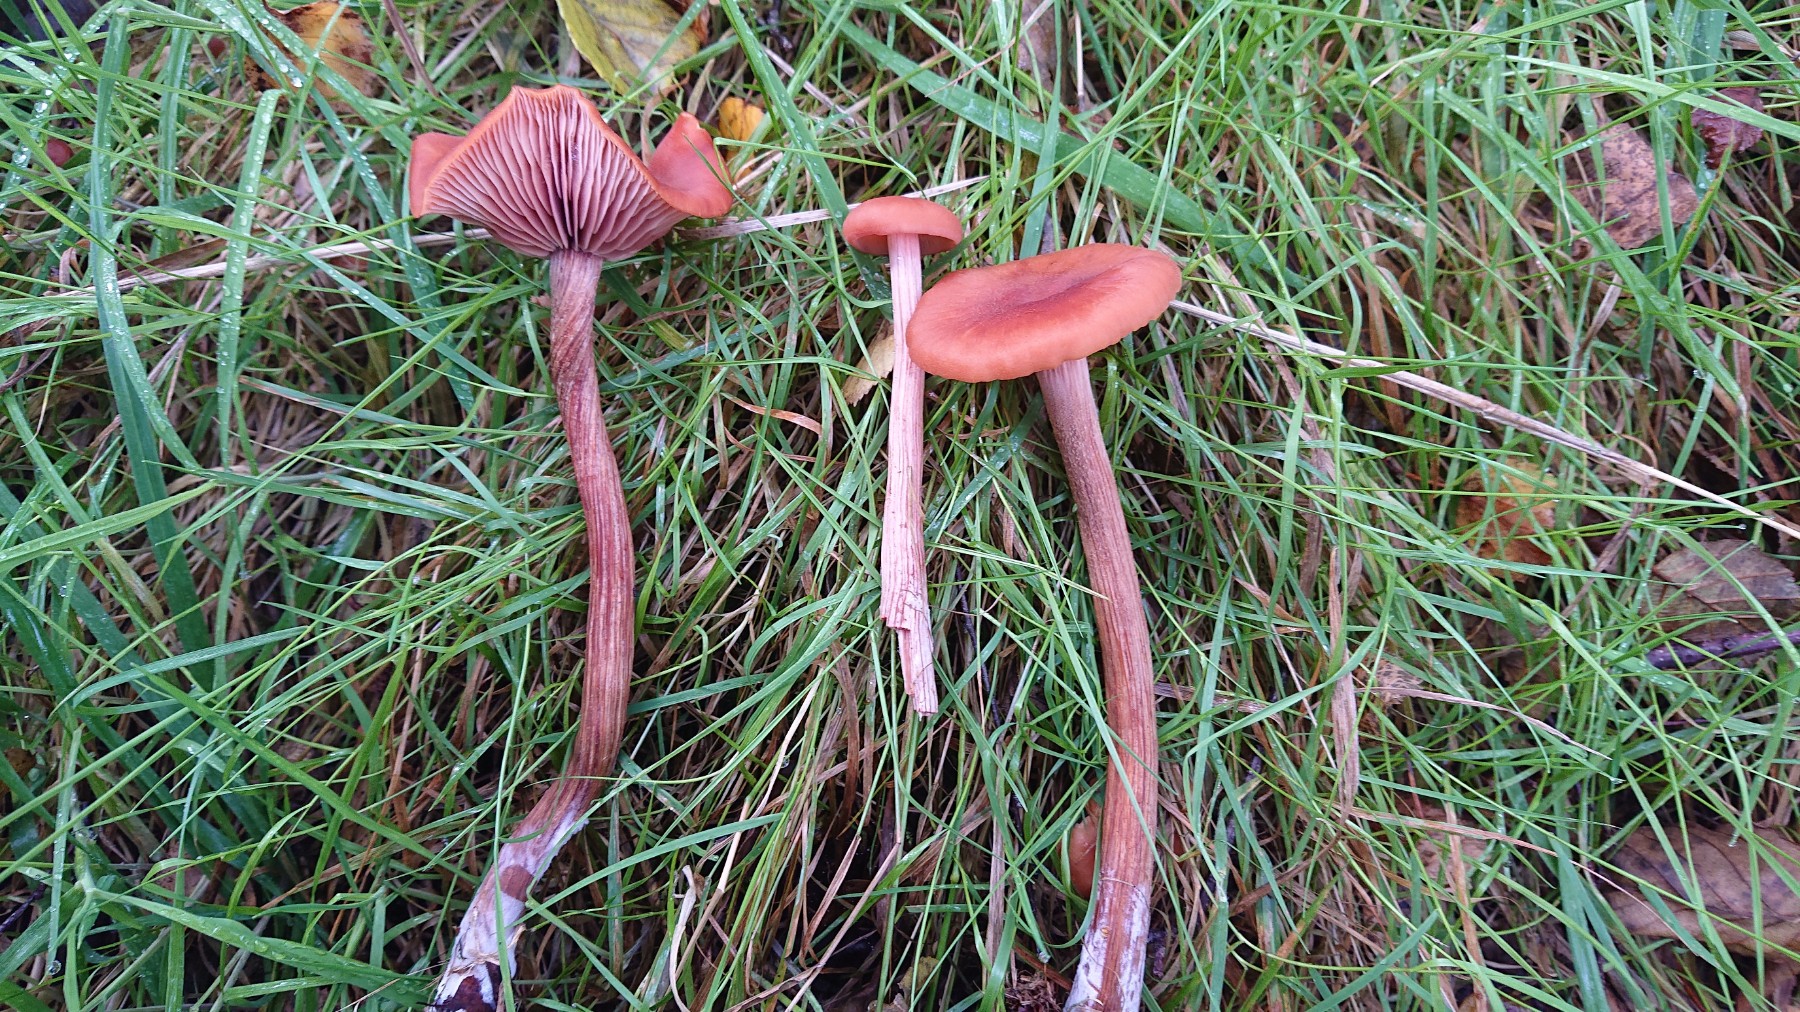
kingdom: Fungi
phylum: Basidiomycota
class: Agaricomycetes
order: Agaricales
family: Hydnangiaceae
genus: Laccaria
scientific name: Laccaria proxima
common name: stor ametysthat
